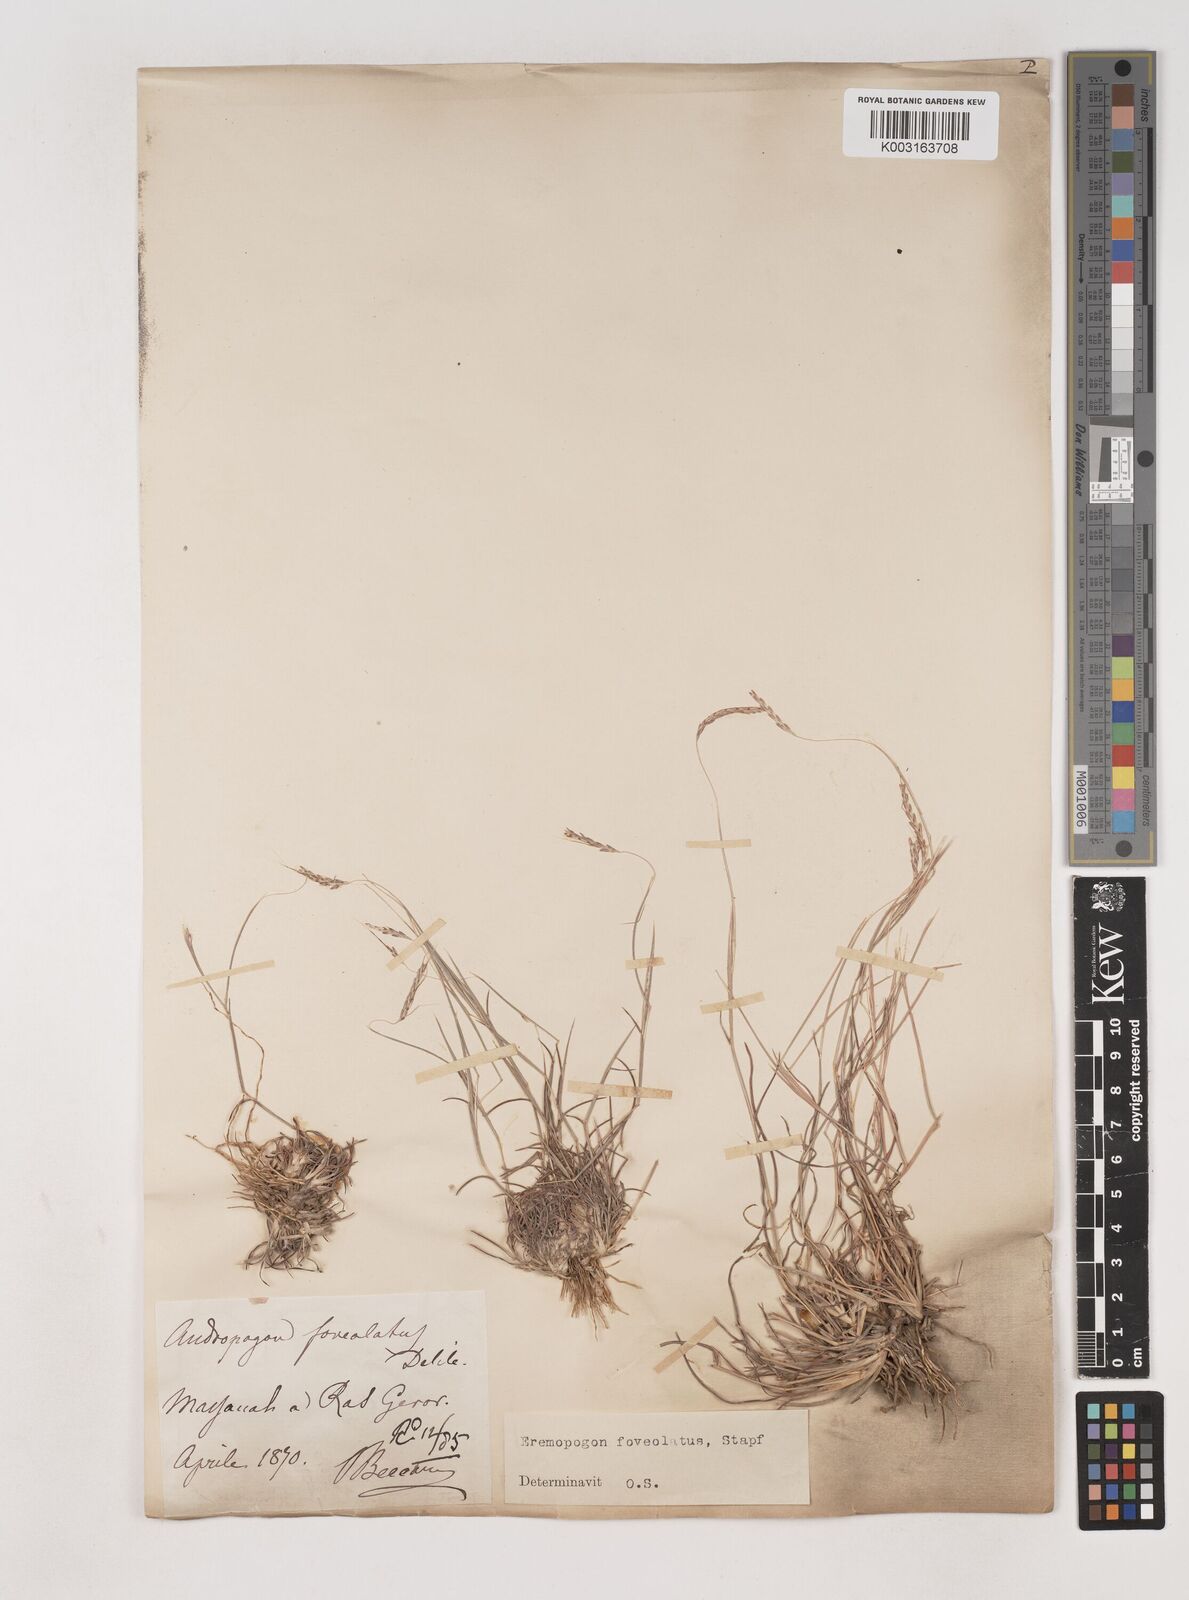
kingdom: Plantae
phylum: Tracheophyta
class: Liliopsida
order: Poales
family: Poaceae
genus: Dichanthium
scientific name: Dichanthium foveolatum
